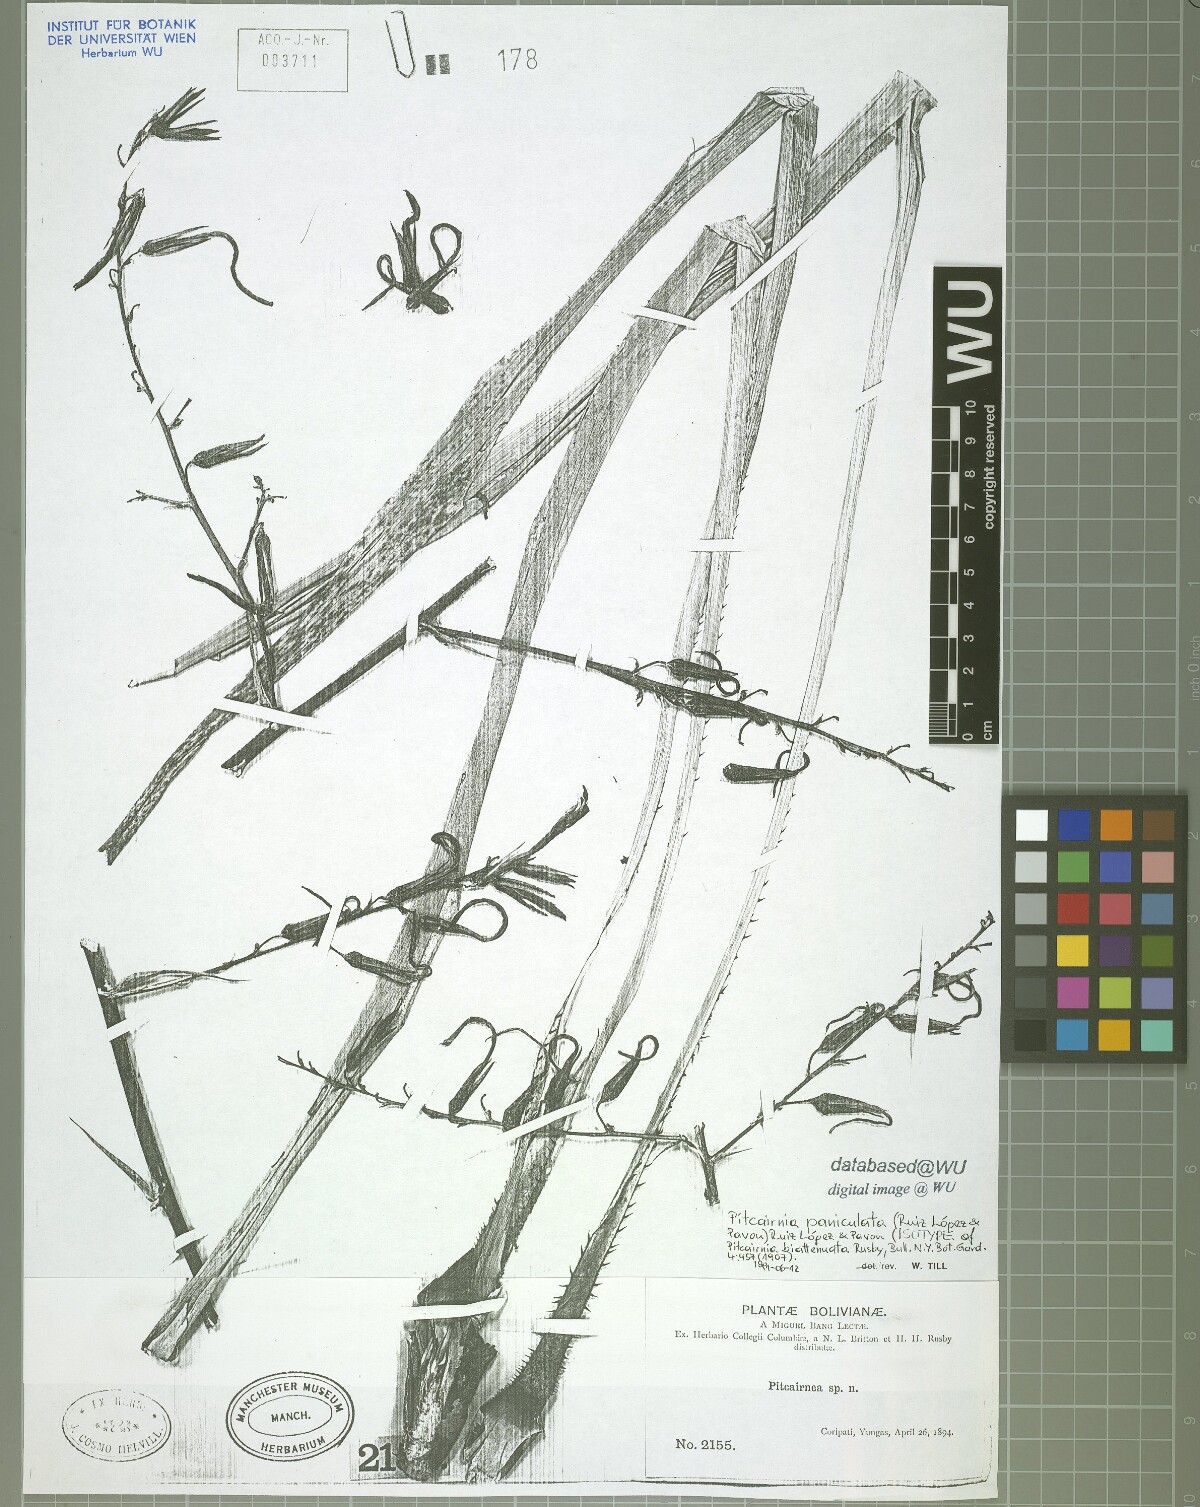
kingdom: Plantae
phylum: Tracheophyta
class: Liliopsida
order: Poales
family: Bromeliaceae
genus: Pitcairnia
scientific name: Pitcairnia paniculata
